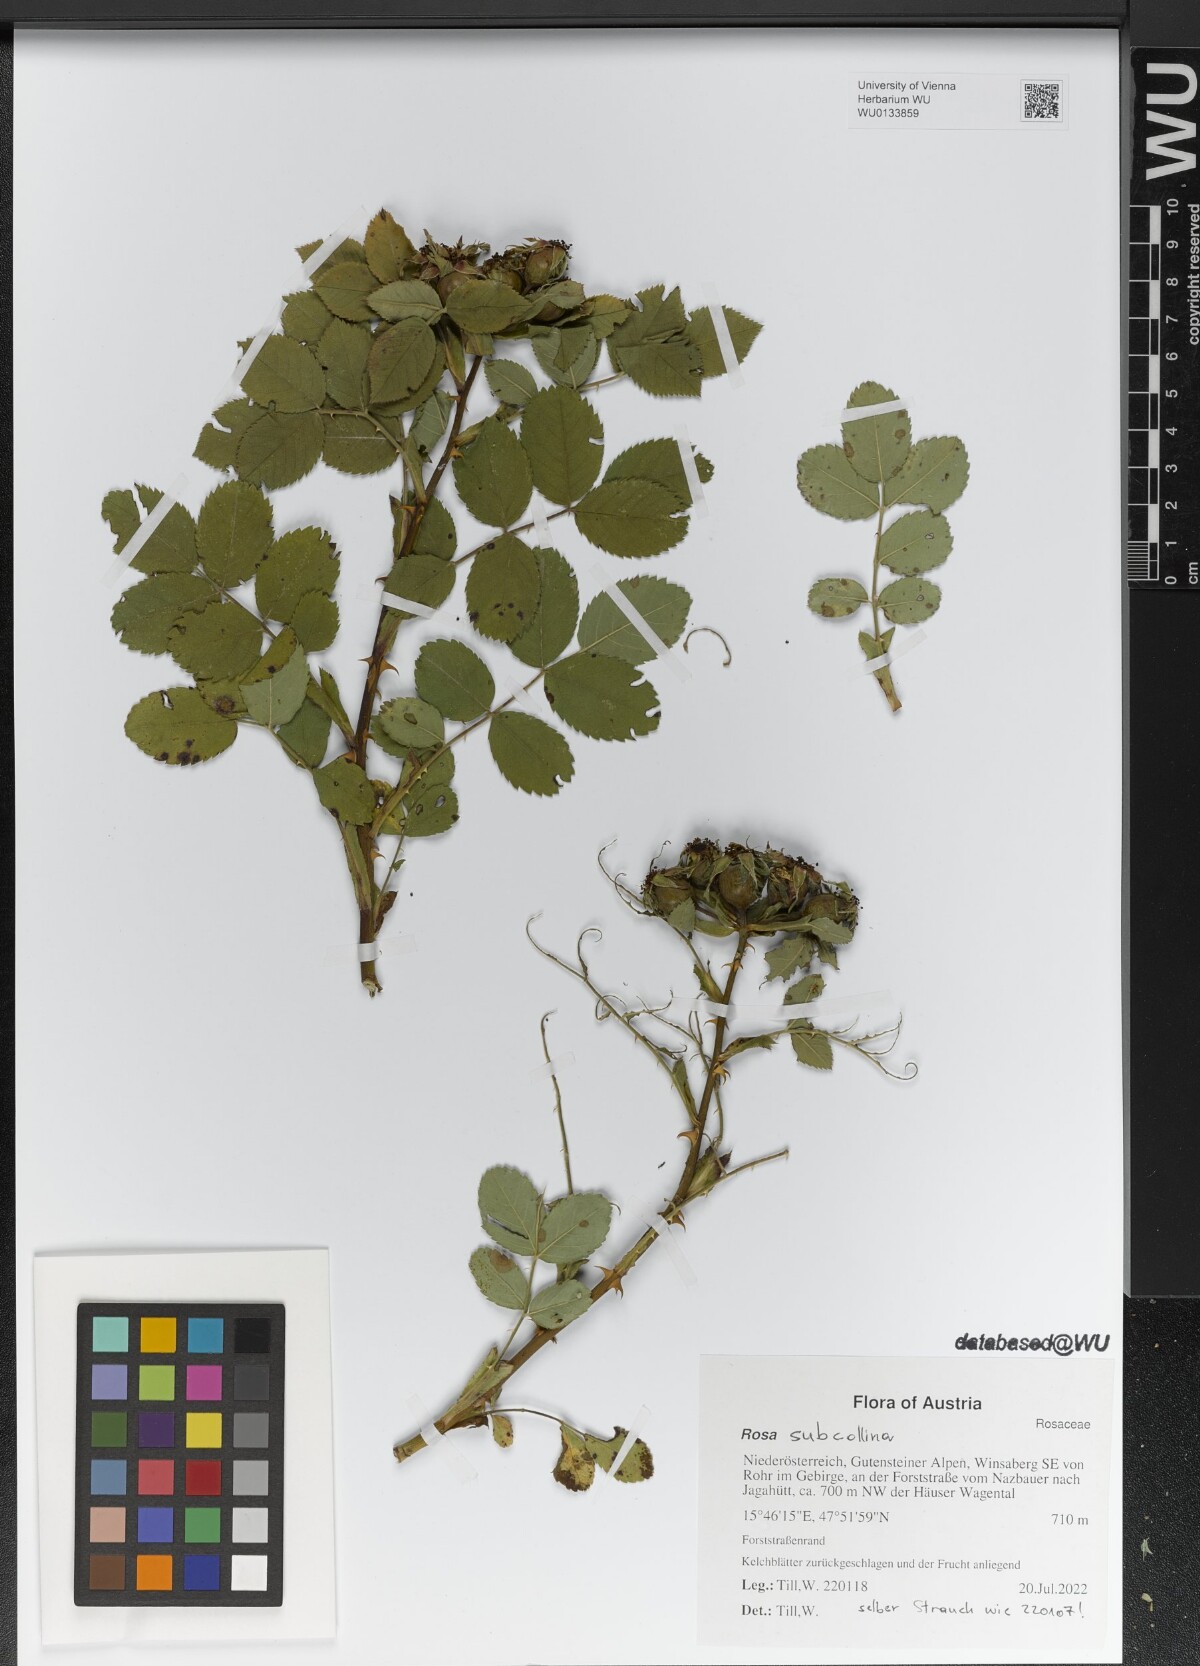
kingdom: Plantae
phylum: Tracheophyta
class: Magnoliopsida
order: Rosales
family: Rosaceae
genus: Rosa
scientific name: Rosa subcollina
